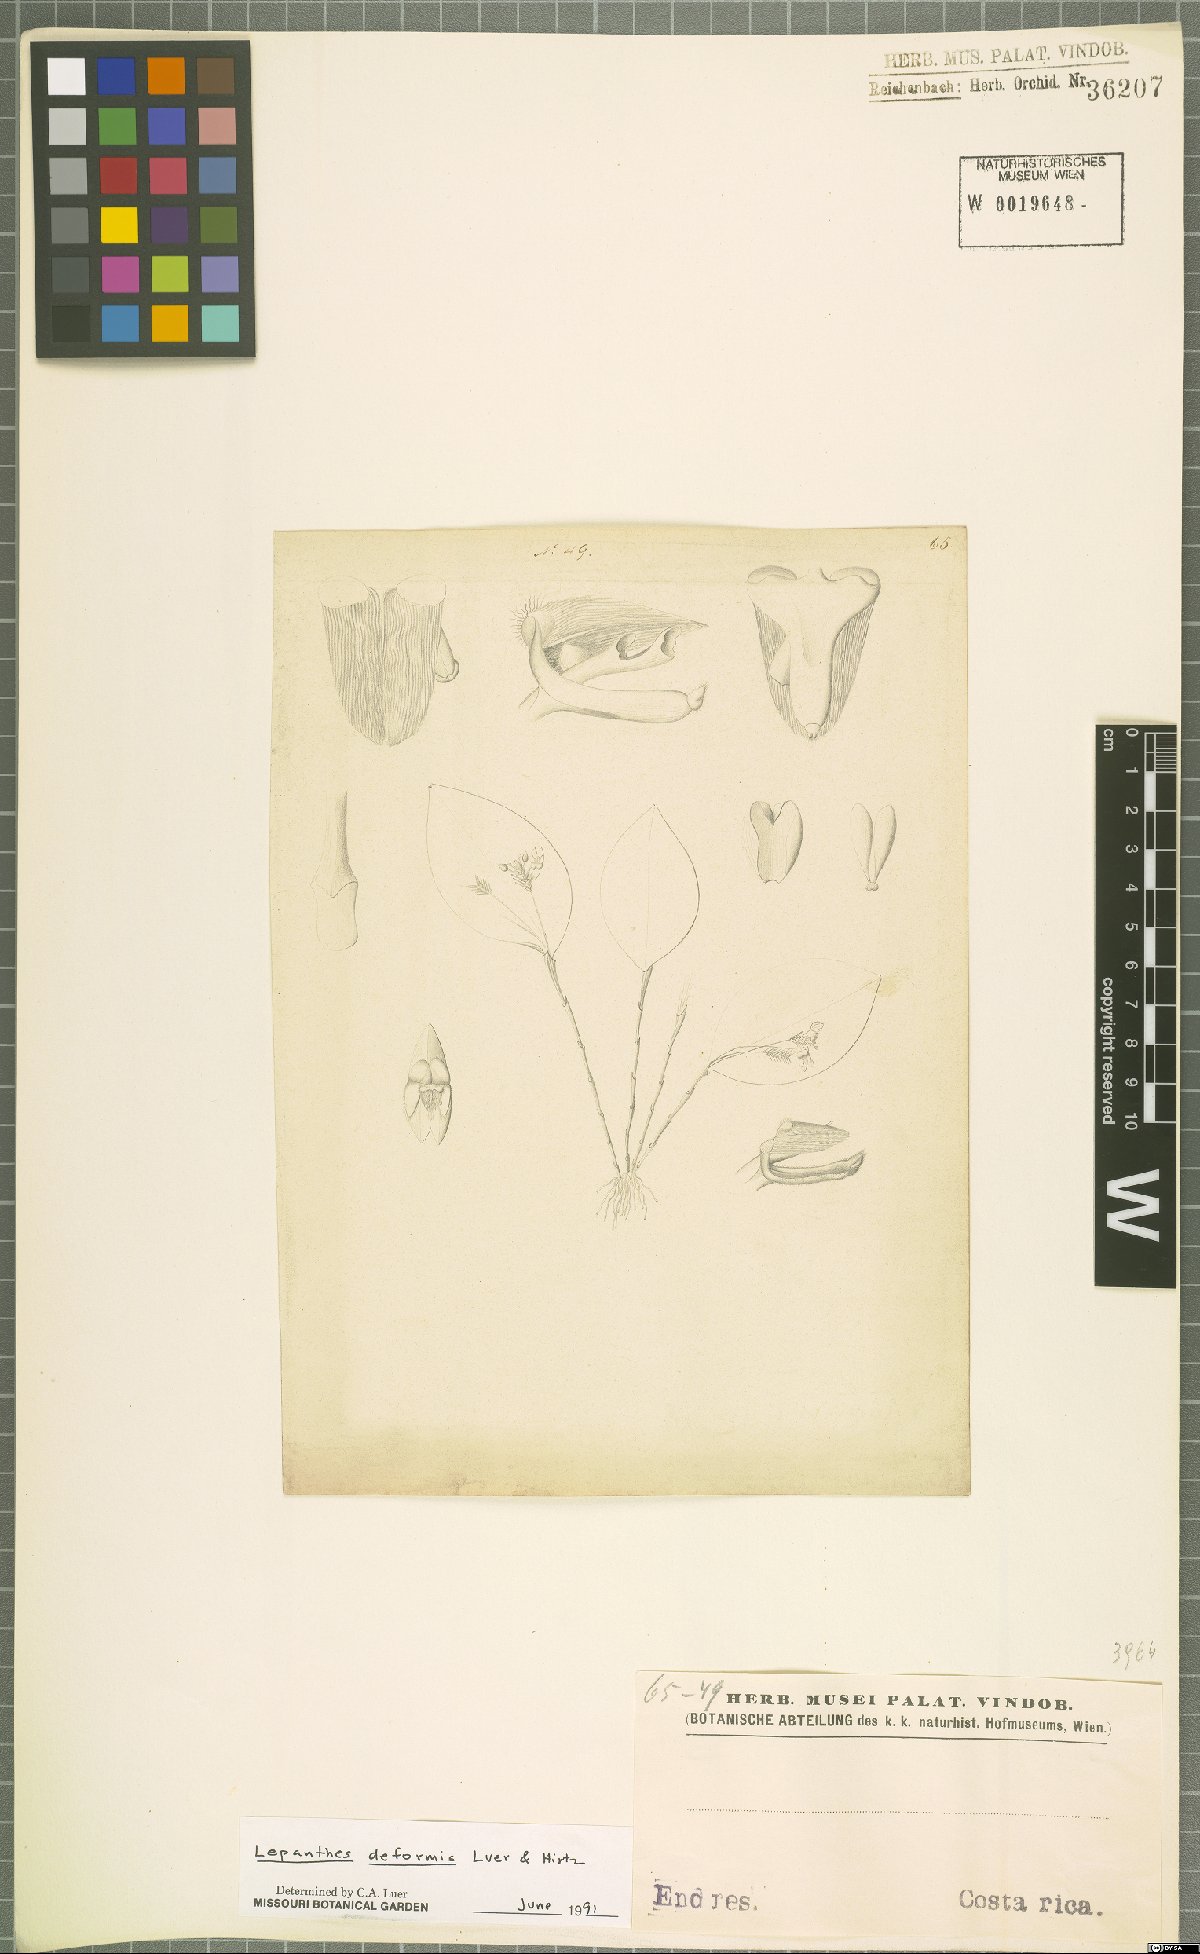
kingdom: Plantae
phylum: Tracheophyta
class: Liliopsida
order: Asparagales
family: Orchidaceae
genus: Lepanthes
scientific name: Lepanthes deformis
